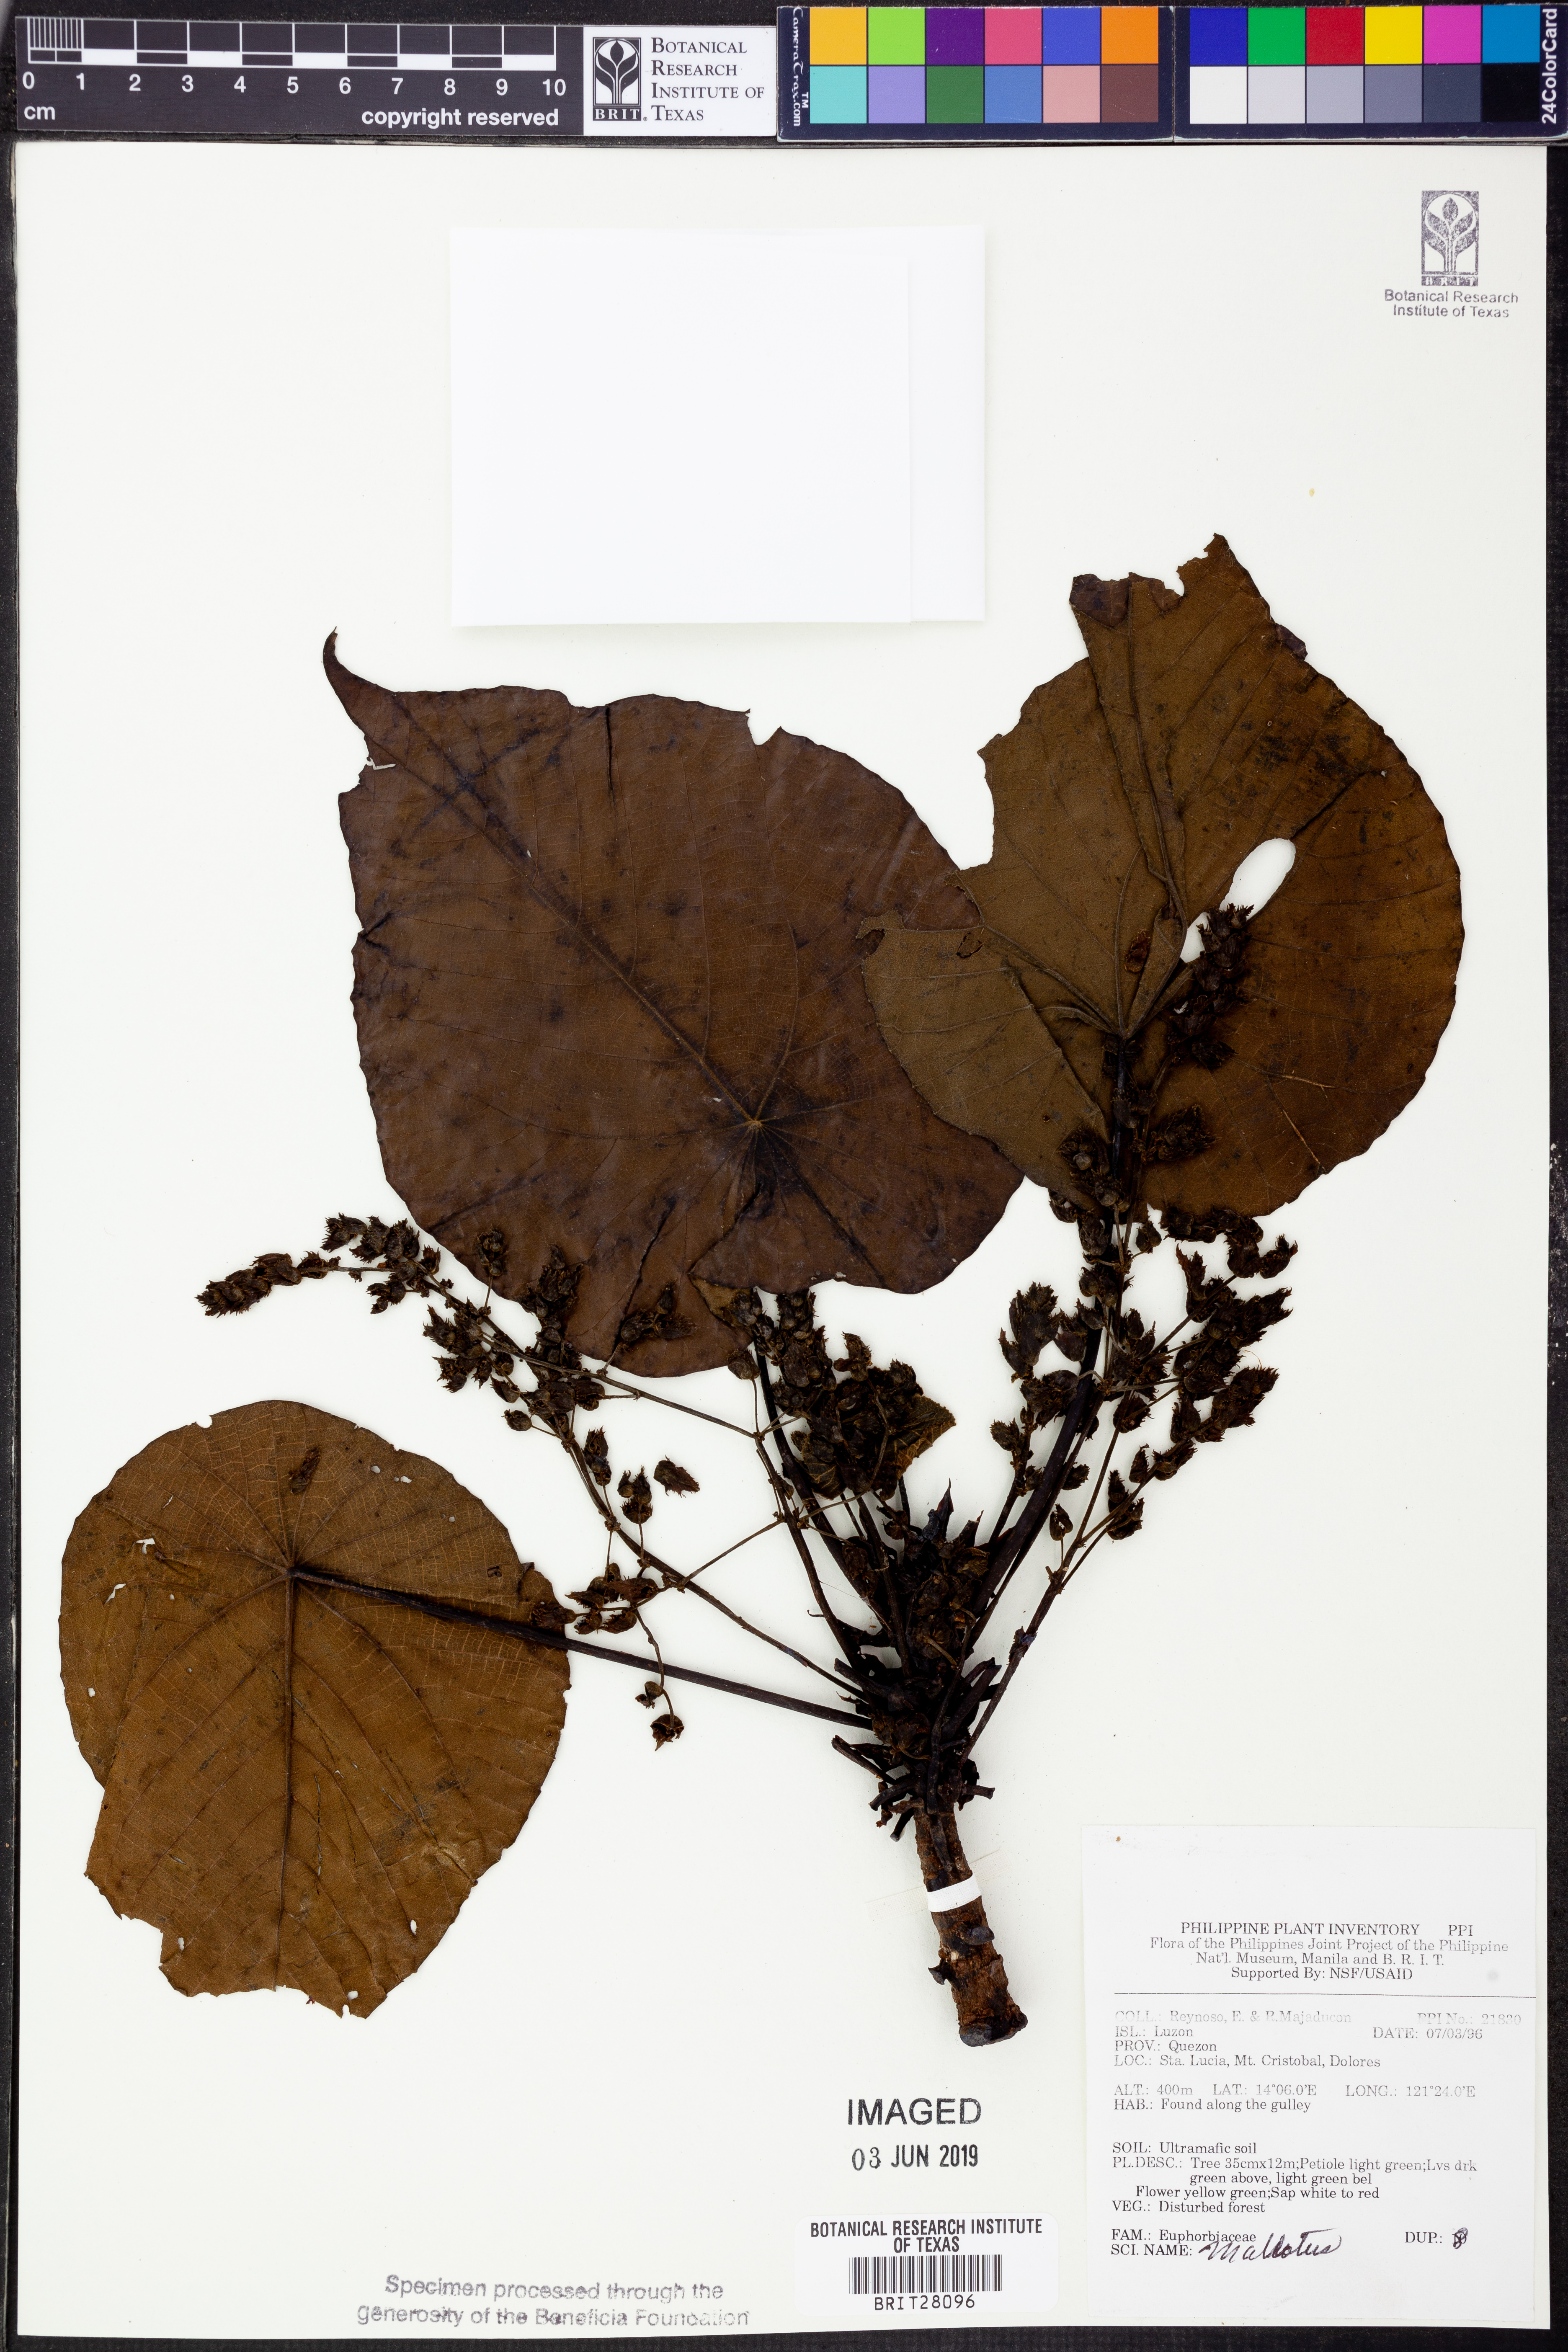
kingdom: Plantae
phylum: Tracheophyta
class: Magnoliopsida
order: Malpighiales
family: Euphorbiaceae
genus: Mallotus
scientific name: Mallotus
